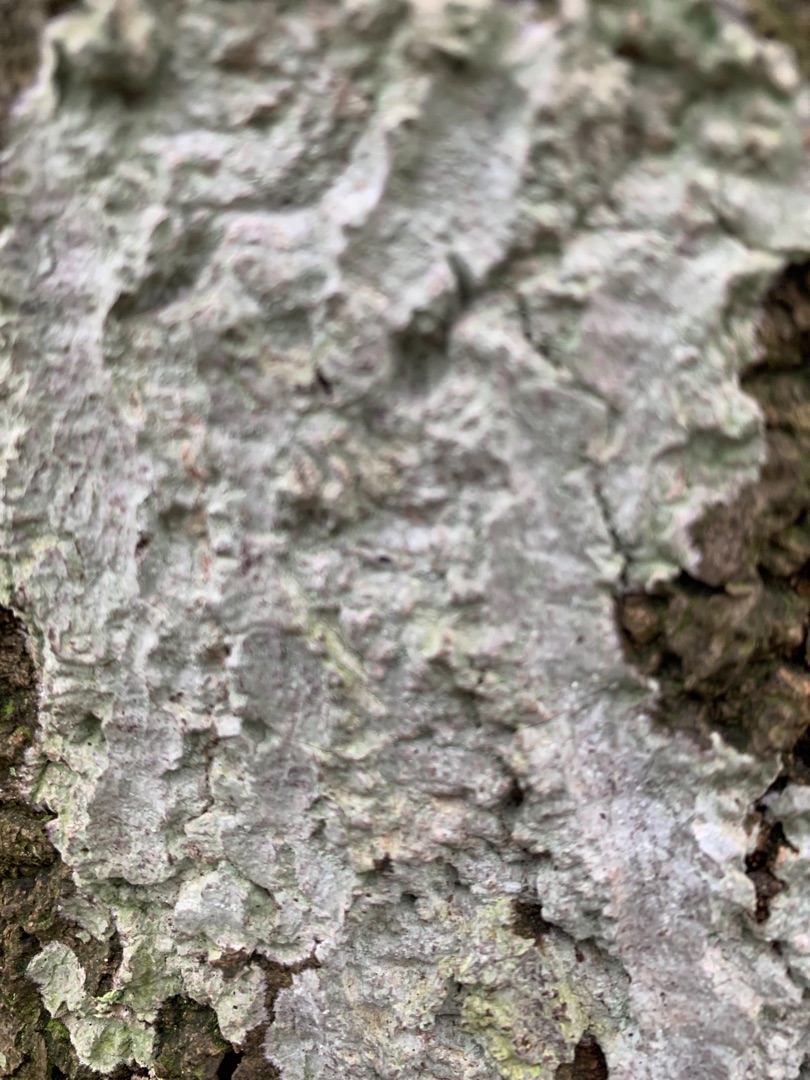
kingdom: Fungi
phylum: Ascomycota
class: Lecanoromycetes
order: Ostropales
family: Phlyctidaceae
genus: Phlyctis
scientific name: Phlyctis argena
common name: Almindelig sølvlav
